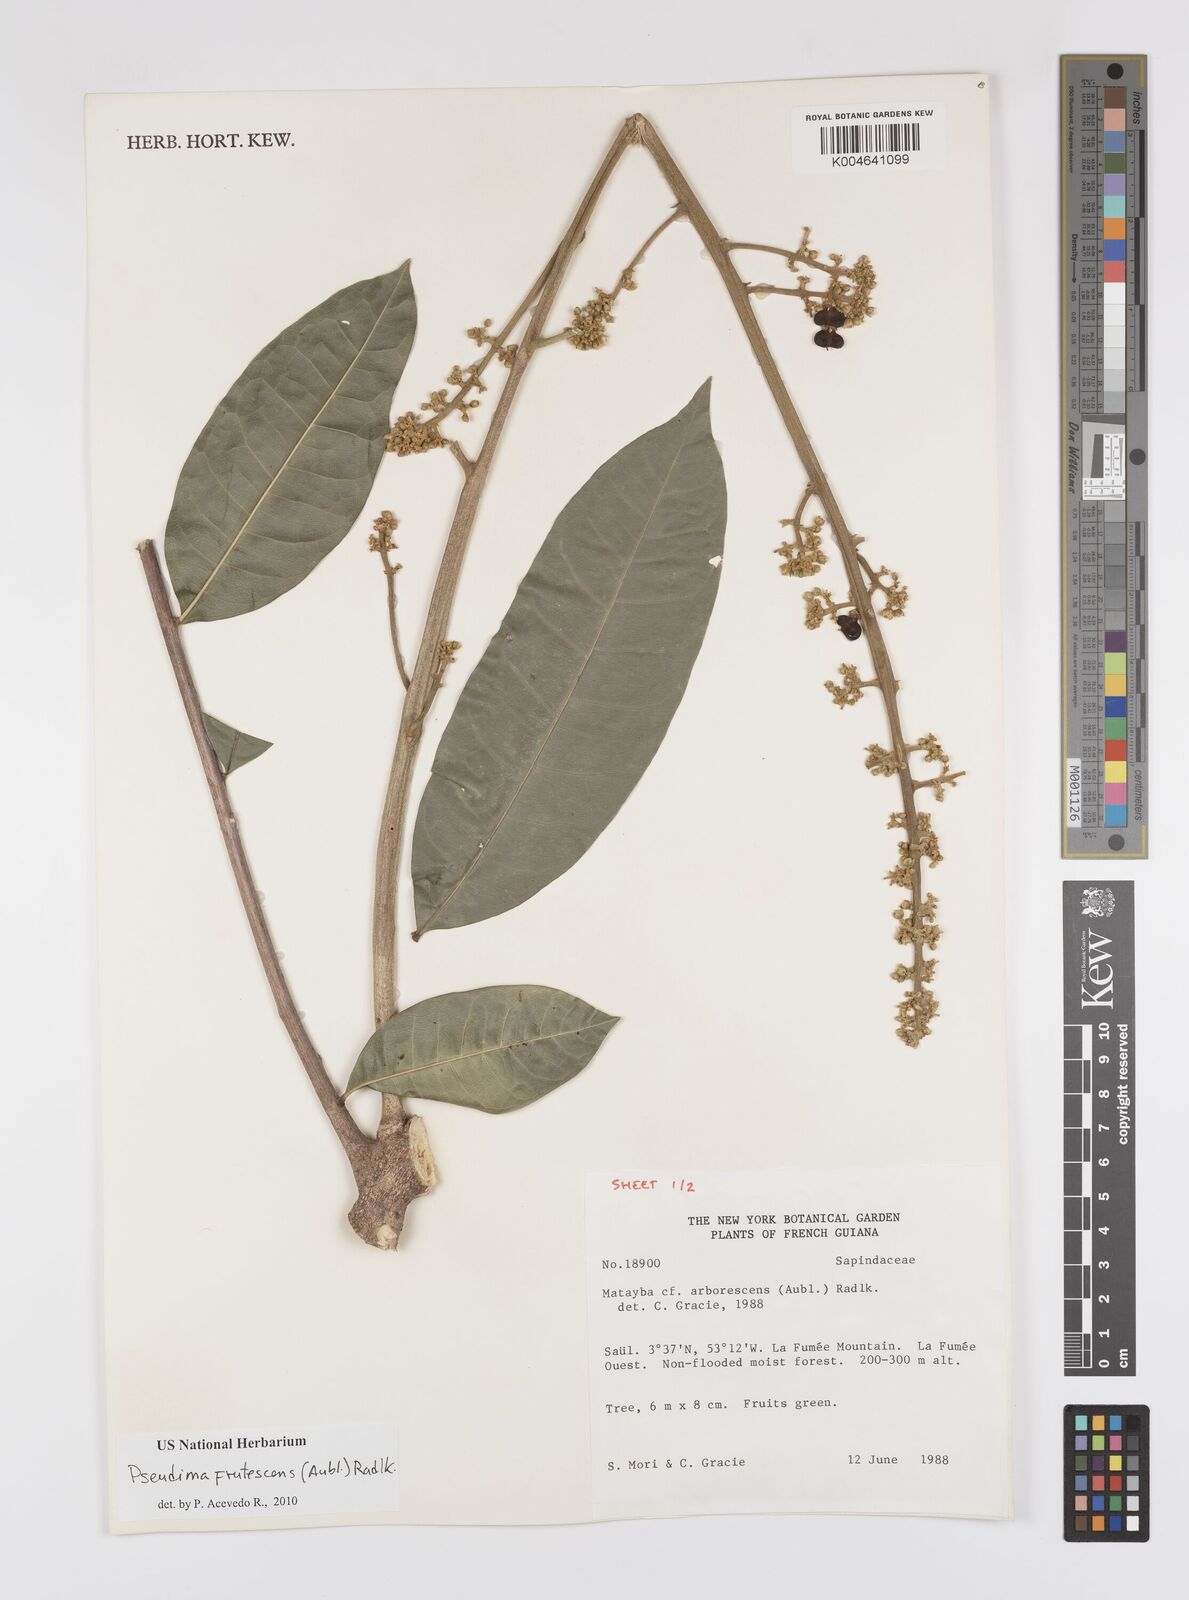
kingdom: Plantae
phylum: Tracheophyta
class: Magnoliopsida
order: Sapindales
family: Sapindaceae
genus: Pseudima
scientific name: Pseudima frutescens
